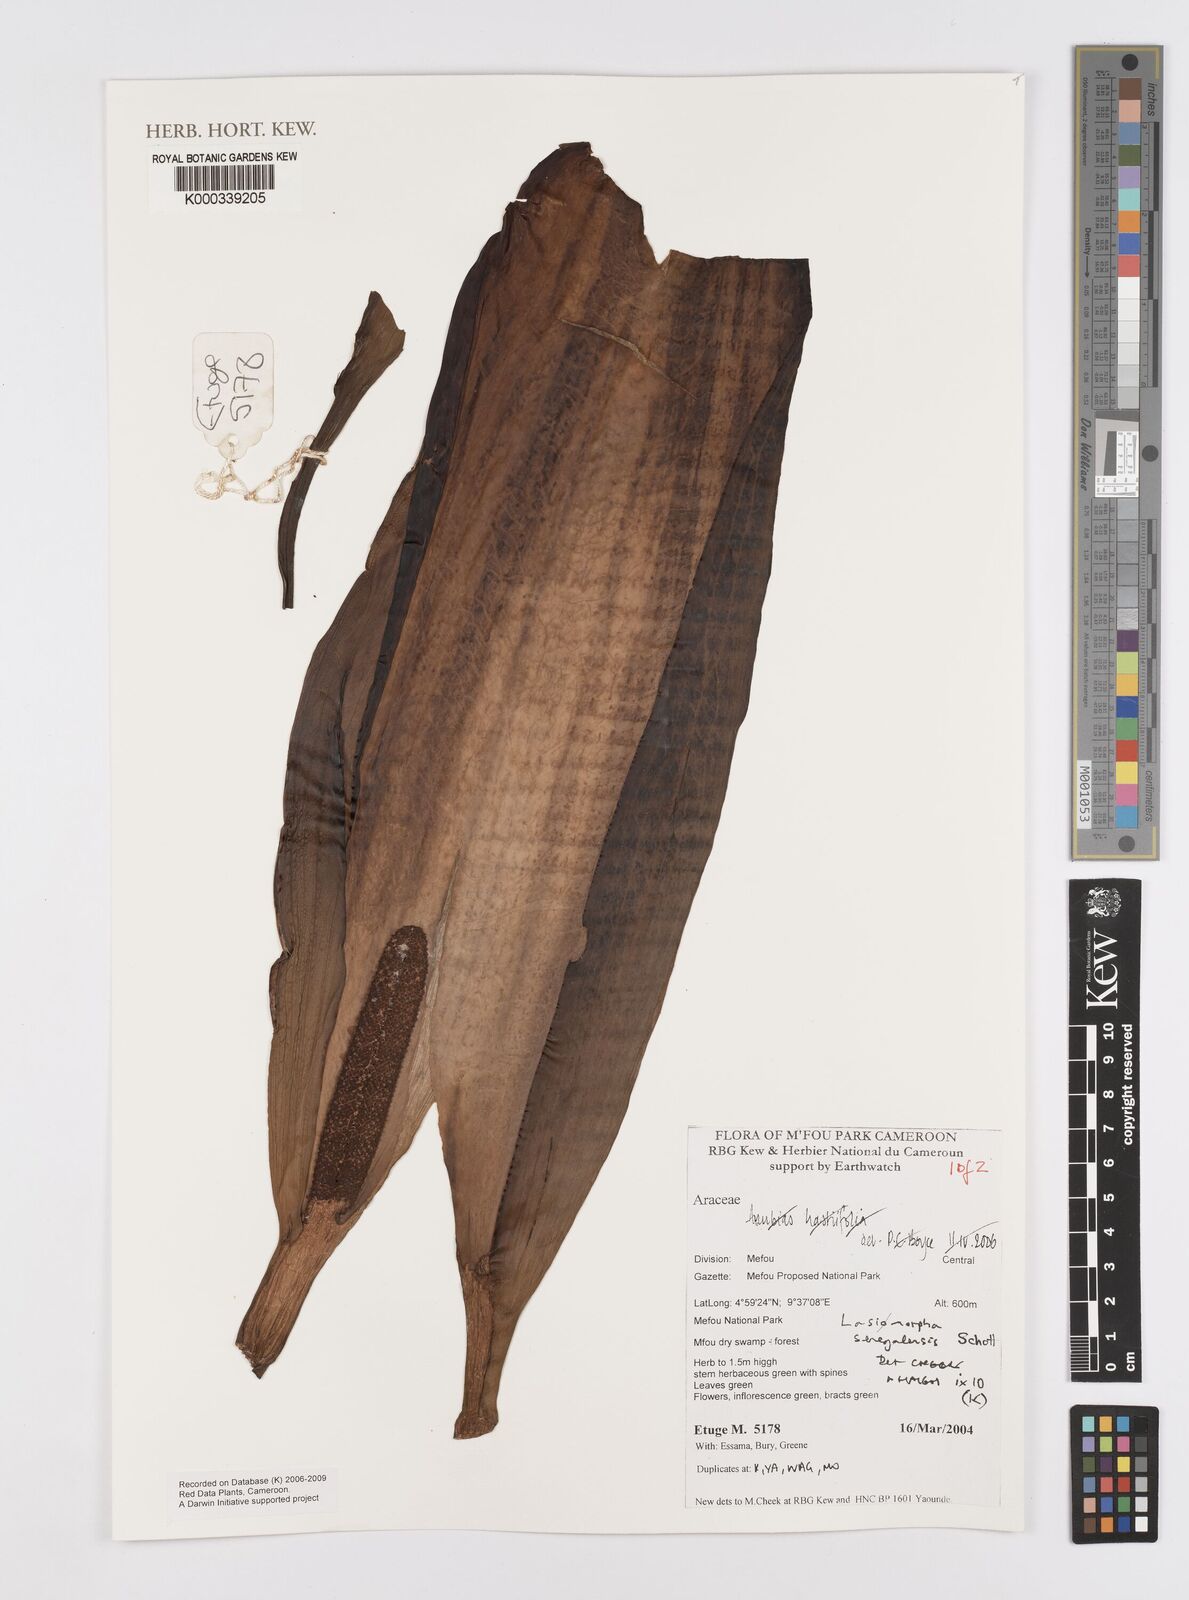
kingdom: Plantae
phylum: Tracheophyta
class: Liliopsida
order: Alismatales
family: Araceae
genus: Lasimorpha
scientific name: Lasimorpha senegalensis
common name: Swamp arum
